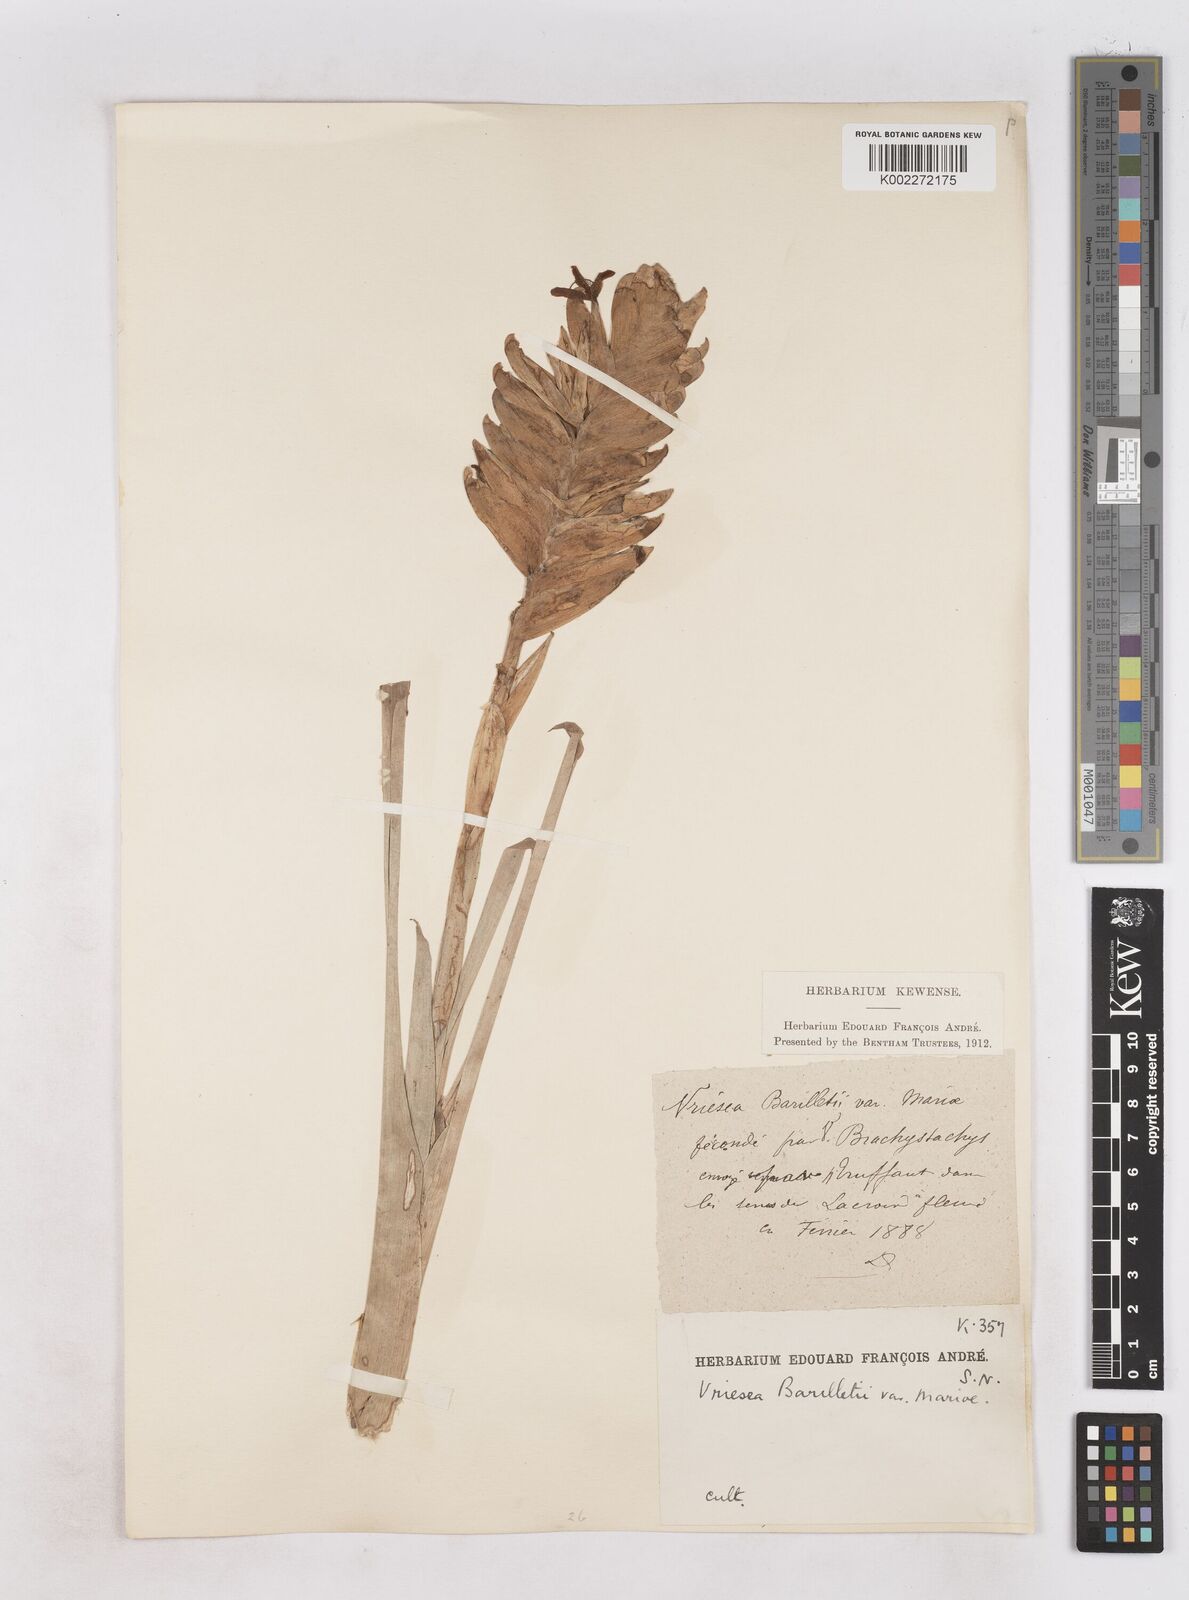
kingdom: Plantae
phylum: Tracheophyta
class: Liliopsida
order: Poales
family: Bromeliaceae
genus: Vriesea
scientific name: Vriesea barilletii
